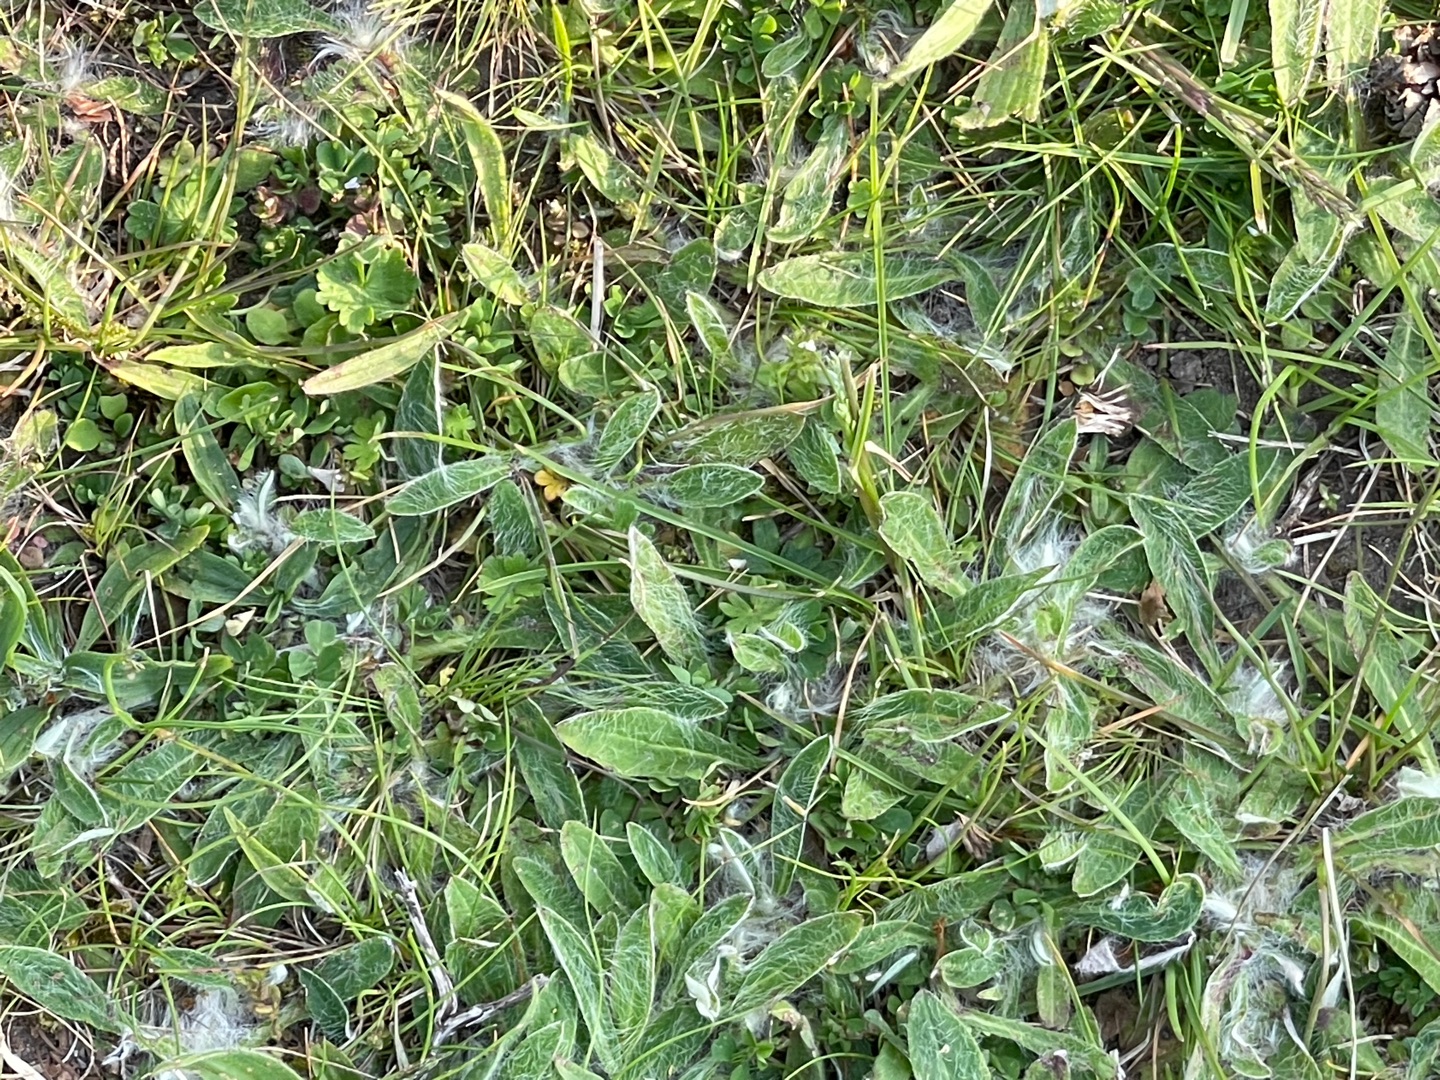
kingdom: Plantae
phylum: Tracheophyta
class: Magnoliopsida
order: Asterales
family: Asteraceae
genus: Pilosella
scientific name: Pilosella officinarum
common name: Håret høgeurt
